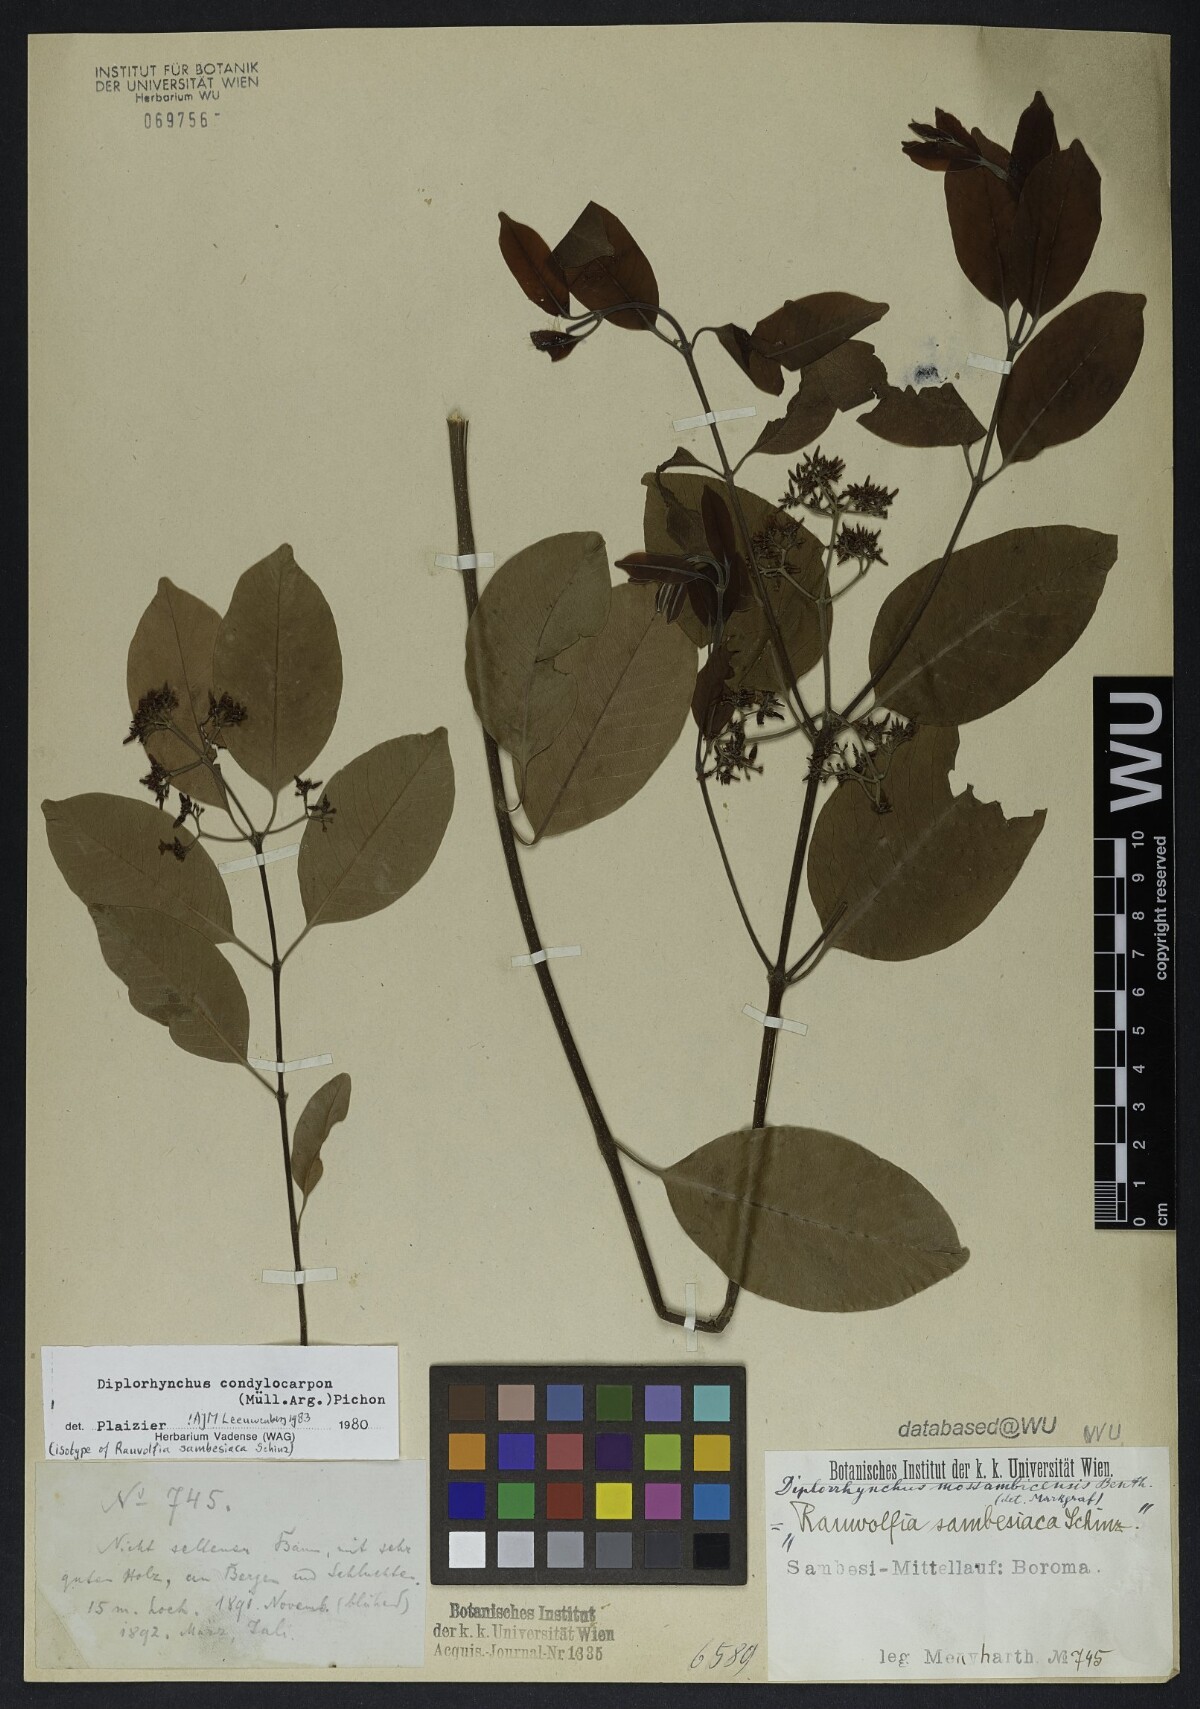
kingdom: Plantae
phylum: Tracheophyta
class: Magnoliopsida
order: Gentianales
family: Apocynaceae
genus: Rauvolfia
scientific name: Rauvolfia mombasiana
